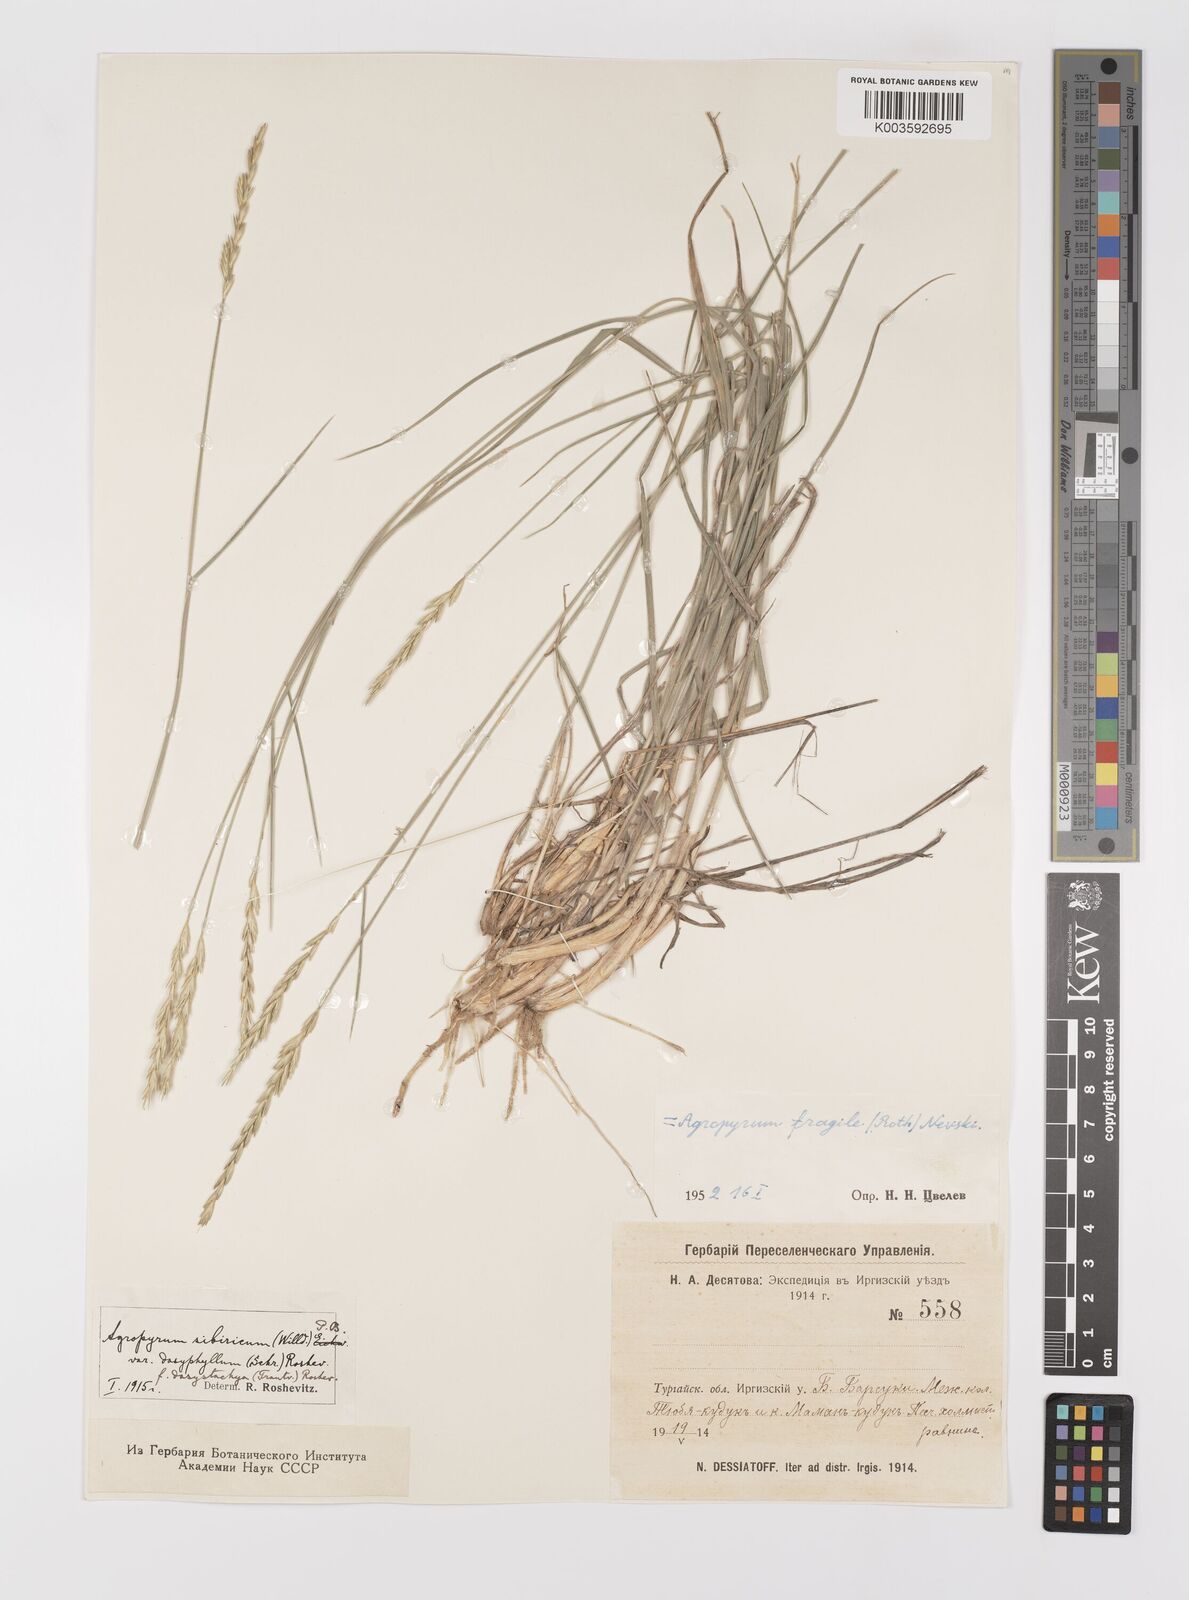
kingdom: Plantae
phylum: Tracheophyta
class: Liliopsida
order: Poales
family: Poaceae
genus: Agropyron
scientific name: Agropyron fragile
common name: Siberian wheatgrass
